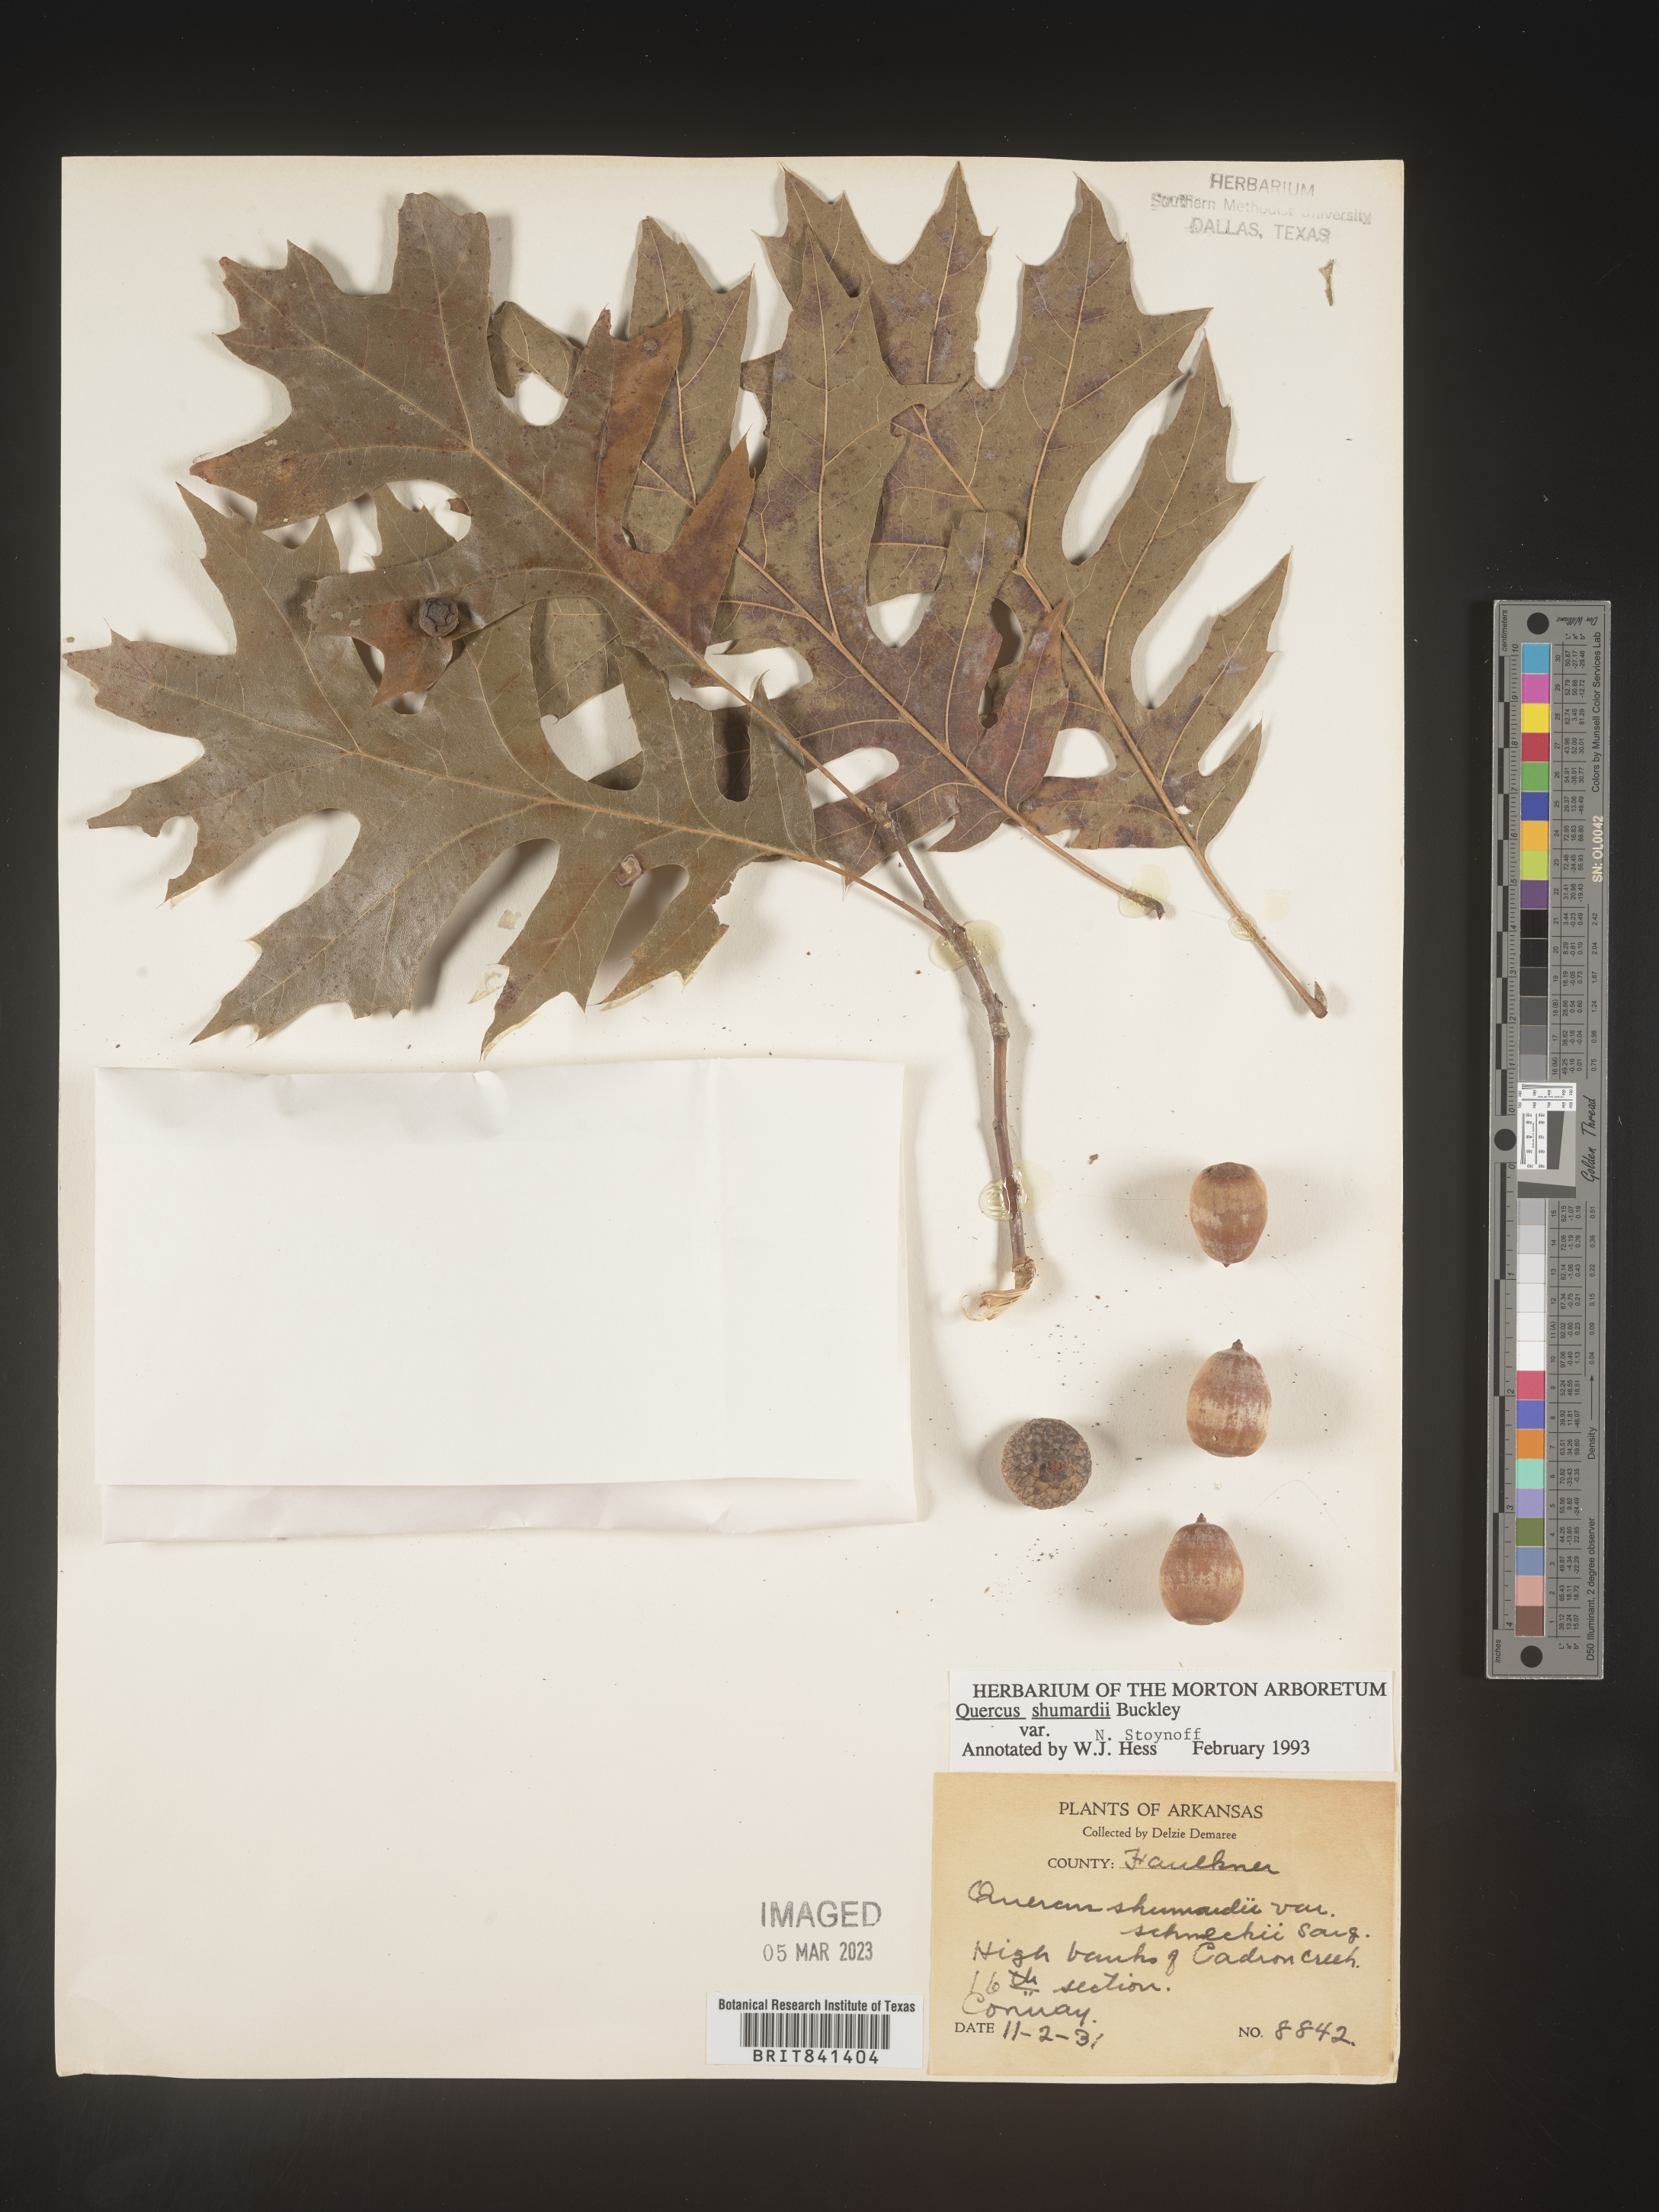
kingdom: Plantae
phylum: Tracheophyta
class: Magnoliopsida
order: Fagales
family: Fagaceae
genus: Quercus
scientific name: Quercus shumardii
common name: Shumard oak
